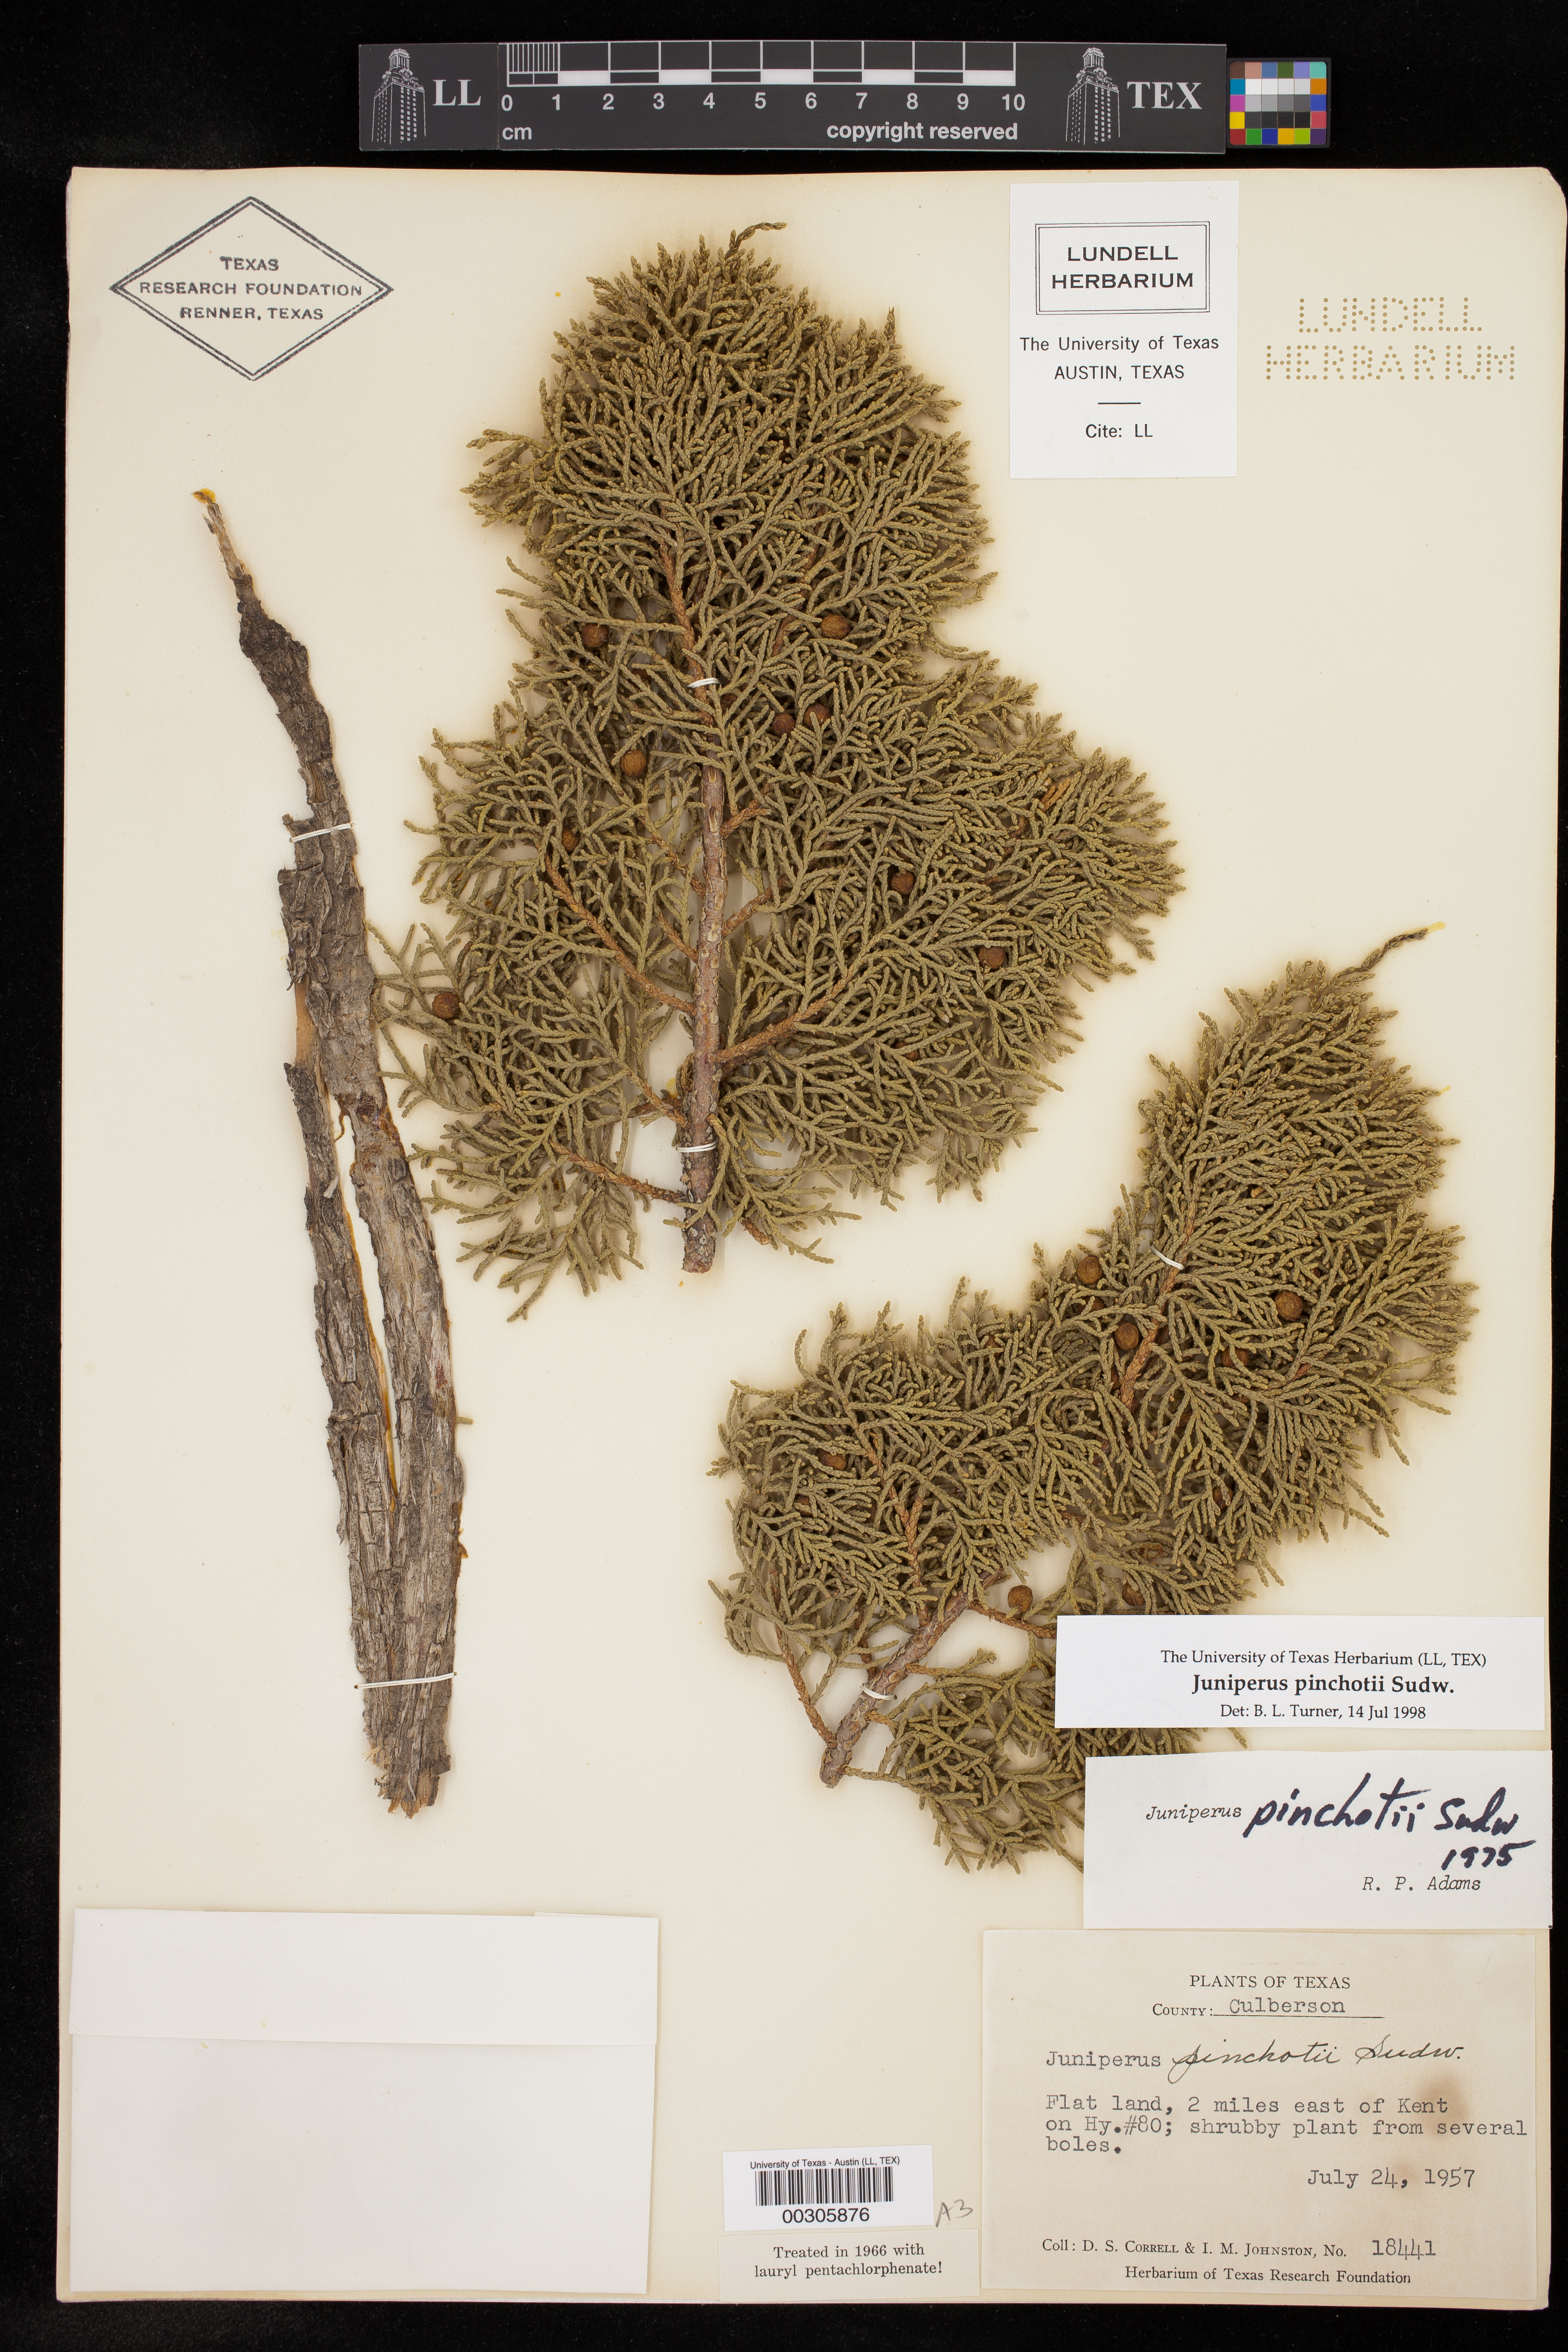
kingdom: Plantae
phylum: Tracheophyta
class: Pinopsida
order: Pinales
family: Cupressaceae
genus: Juniperus
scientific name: Juniperus pinchotii
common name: Pinchot juniper
